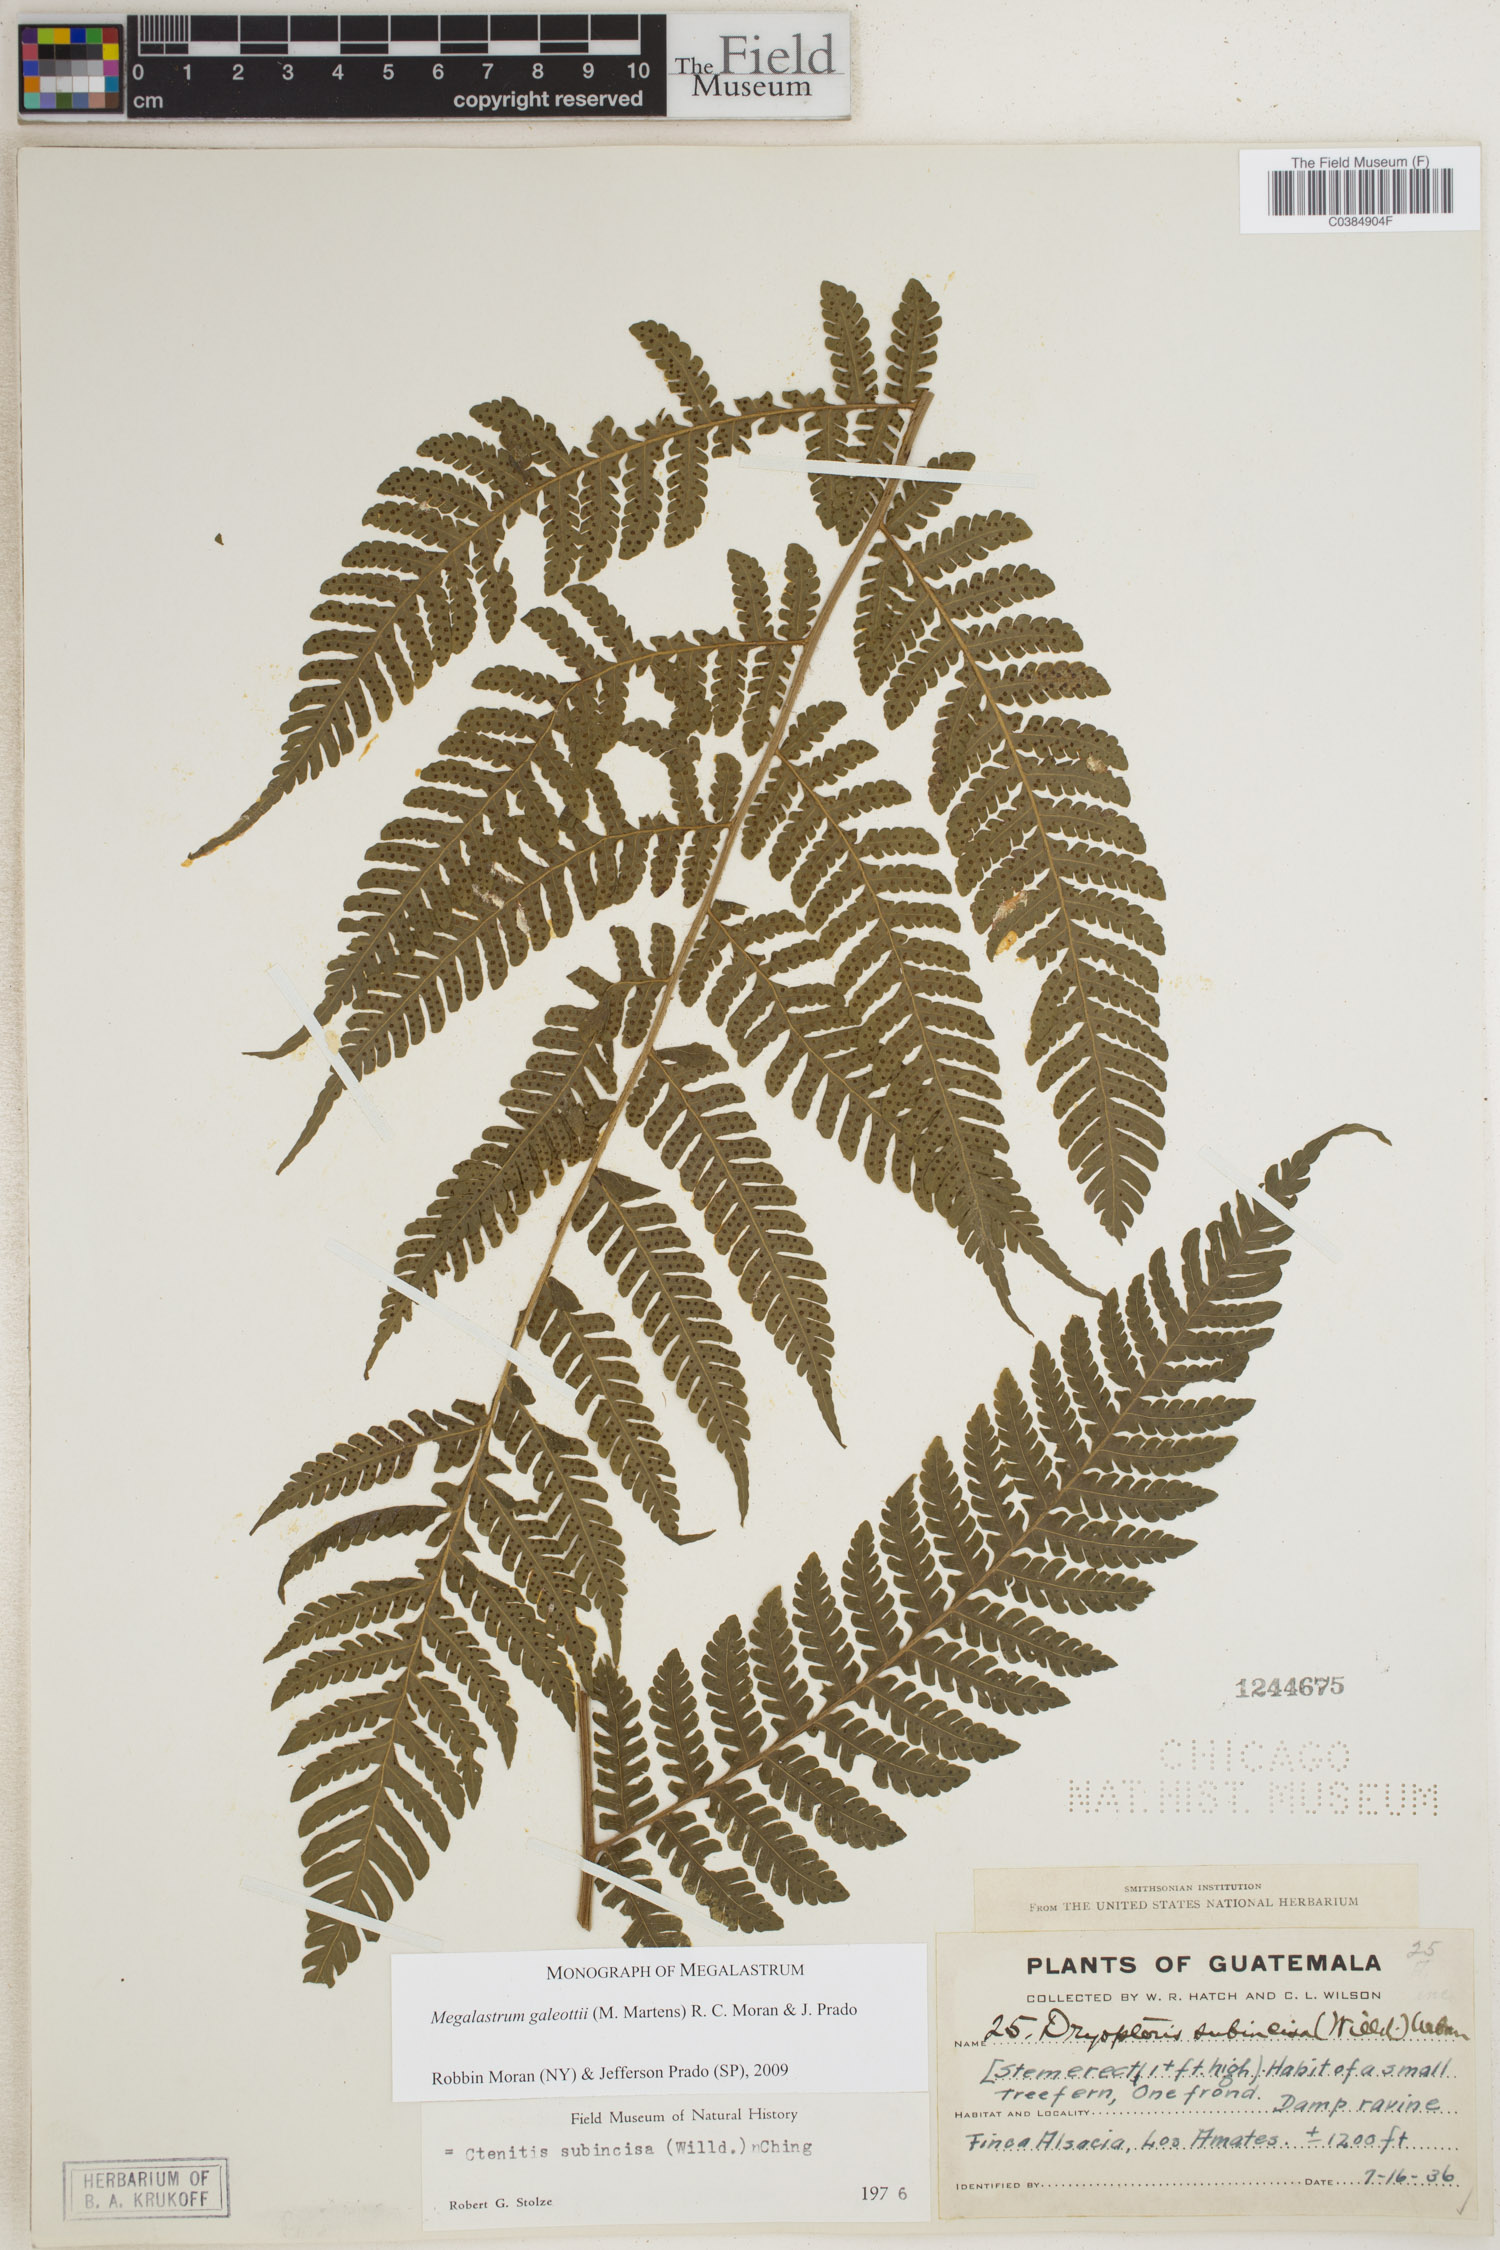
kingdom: Plantae
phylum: Tracheophyta
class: Polypodiopsida
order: Polypodiales
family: Dryopteridaceae
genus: Megalastrum
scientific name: Megalastrum galeottii
